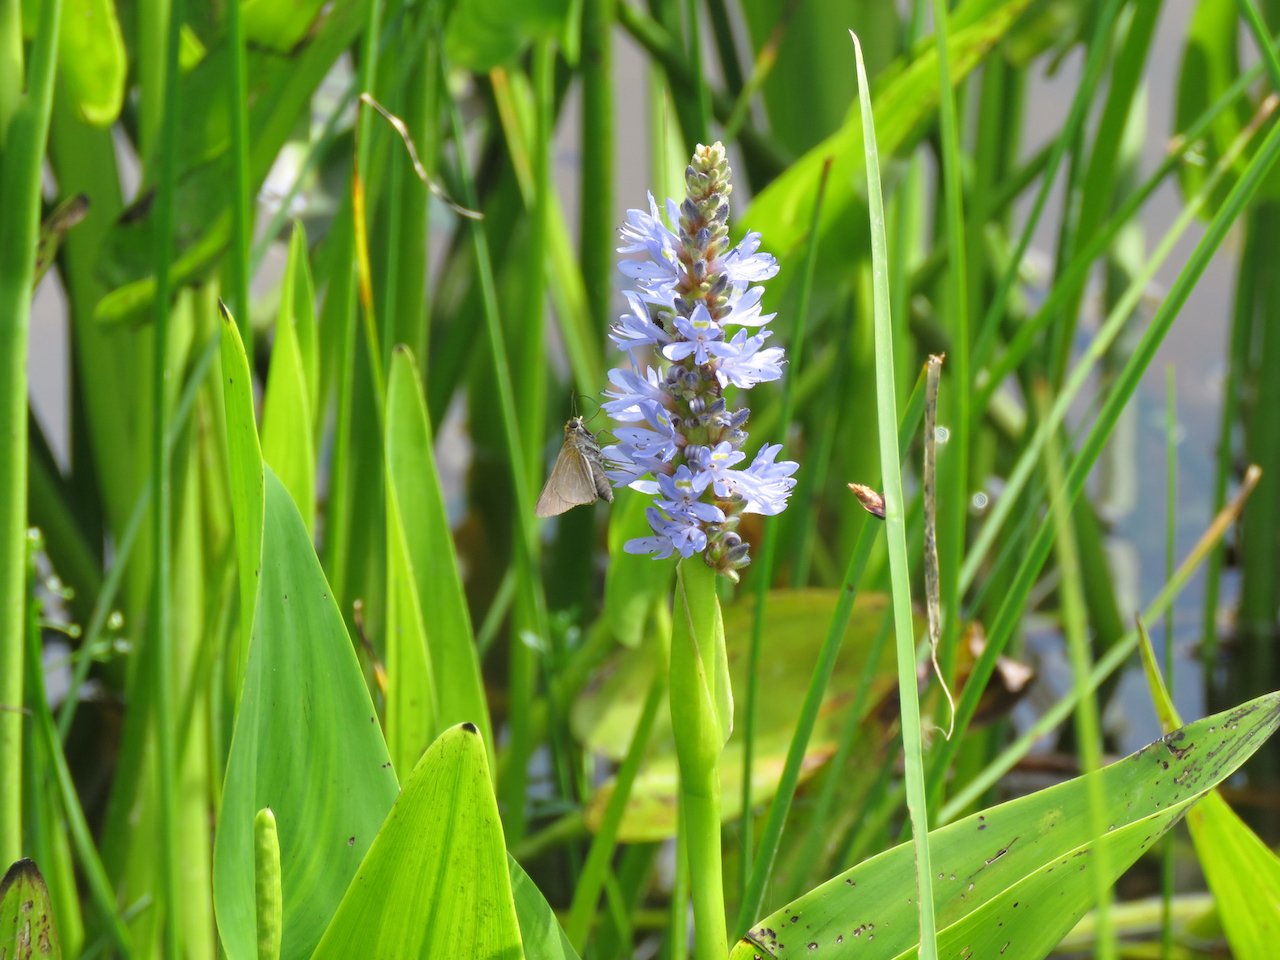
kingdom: Animalia
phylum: Arthropoda
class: Insecta
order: Lepidoptera
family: Hesperiidae
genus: Euphyes
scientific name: Euphyes bimacula
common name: Two-spotted Skipper
